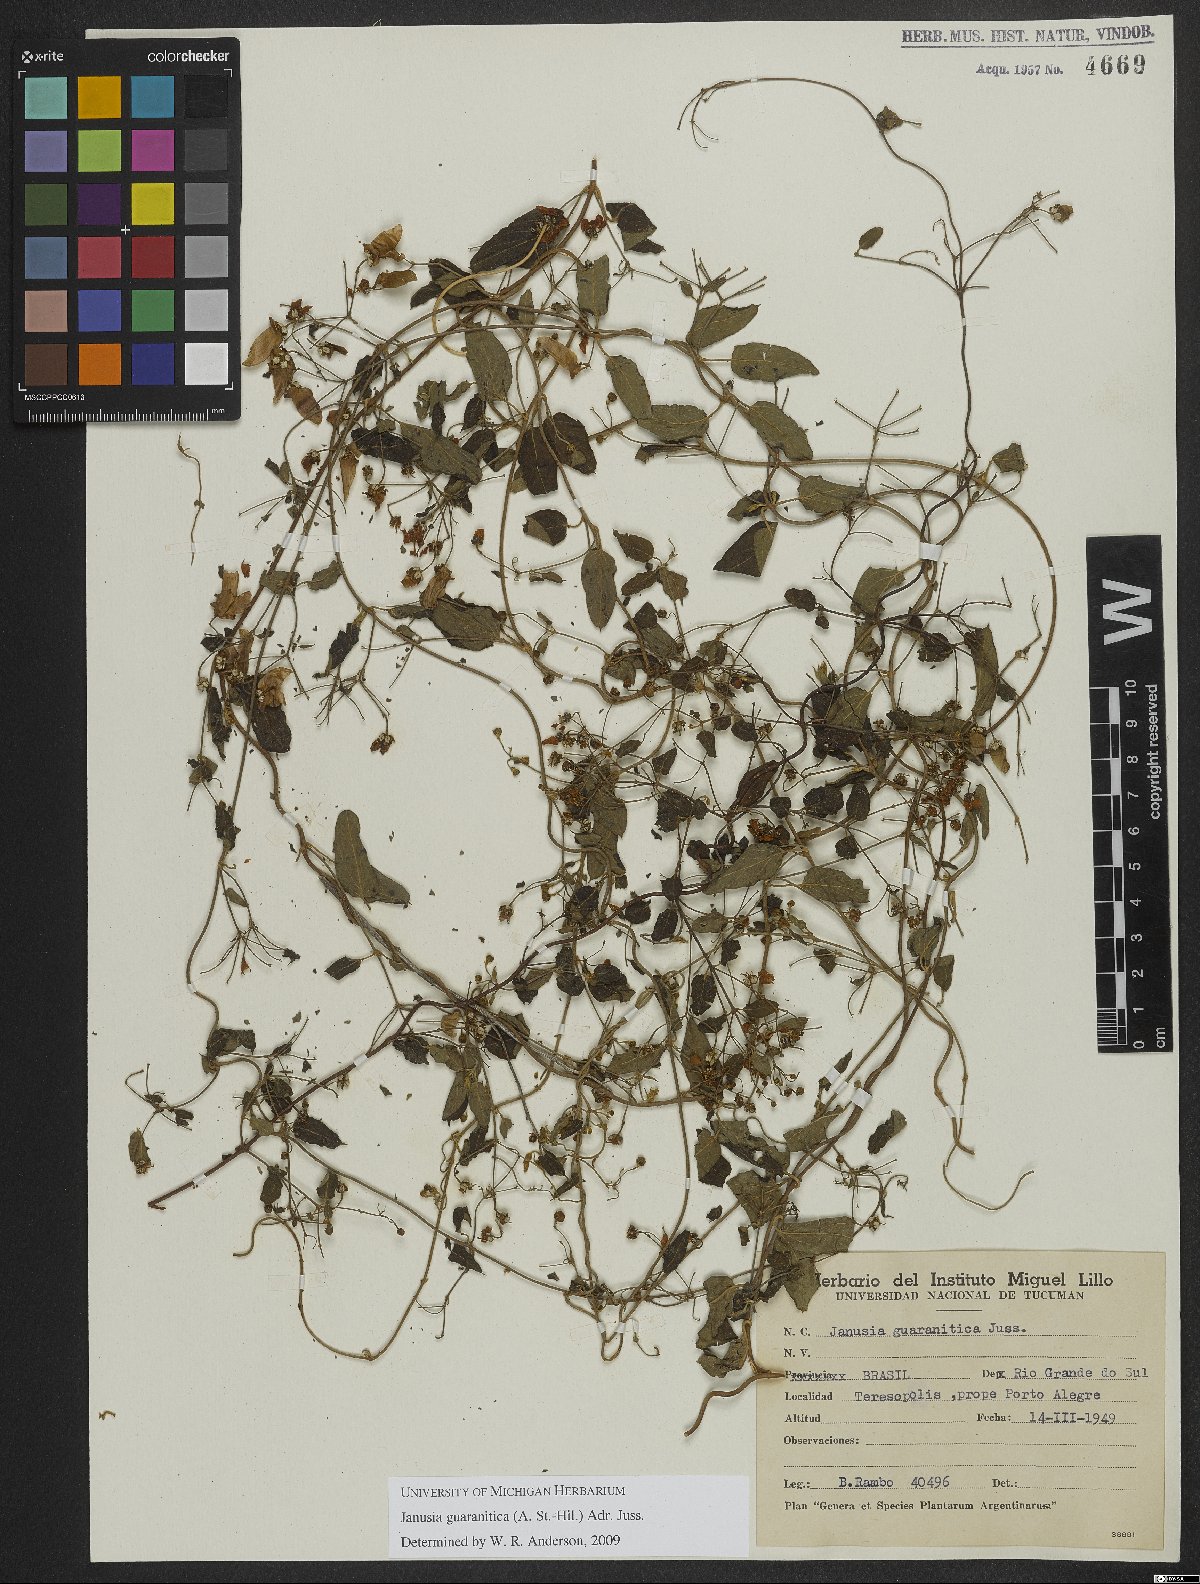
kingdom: Plantae
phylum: Tracheophyta
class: Magnoliopsida
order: Malpighiales
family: Malpighiaceae
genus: Janusia
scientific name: Janusia guaranitica
